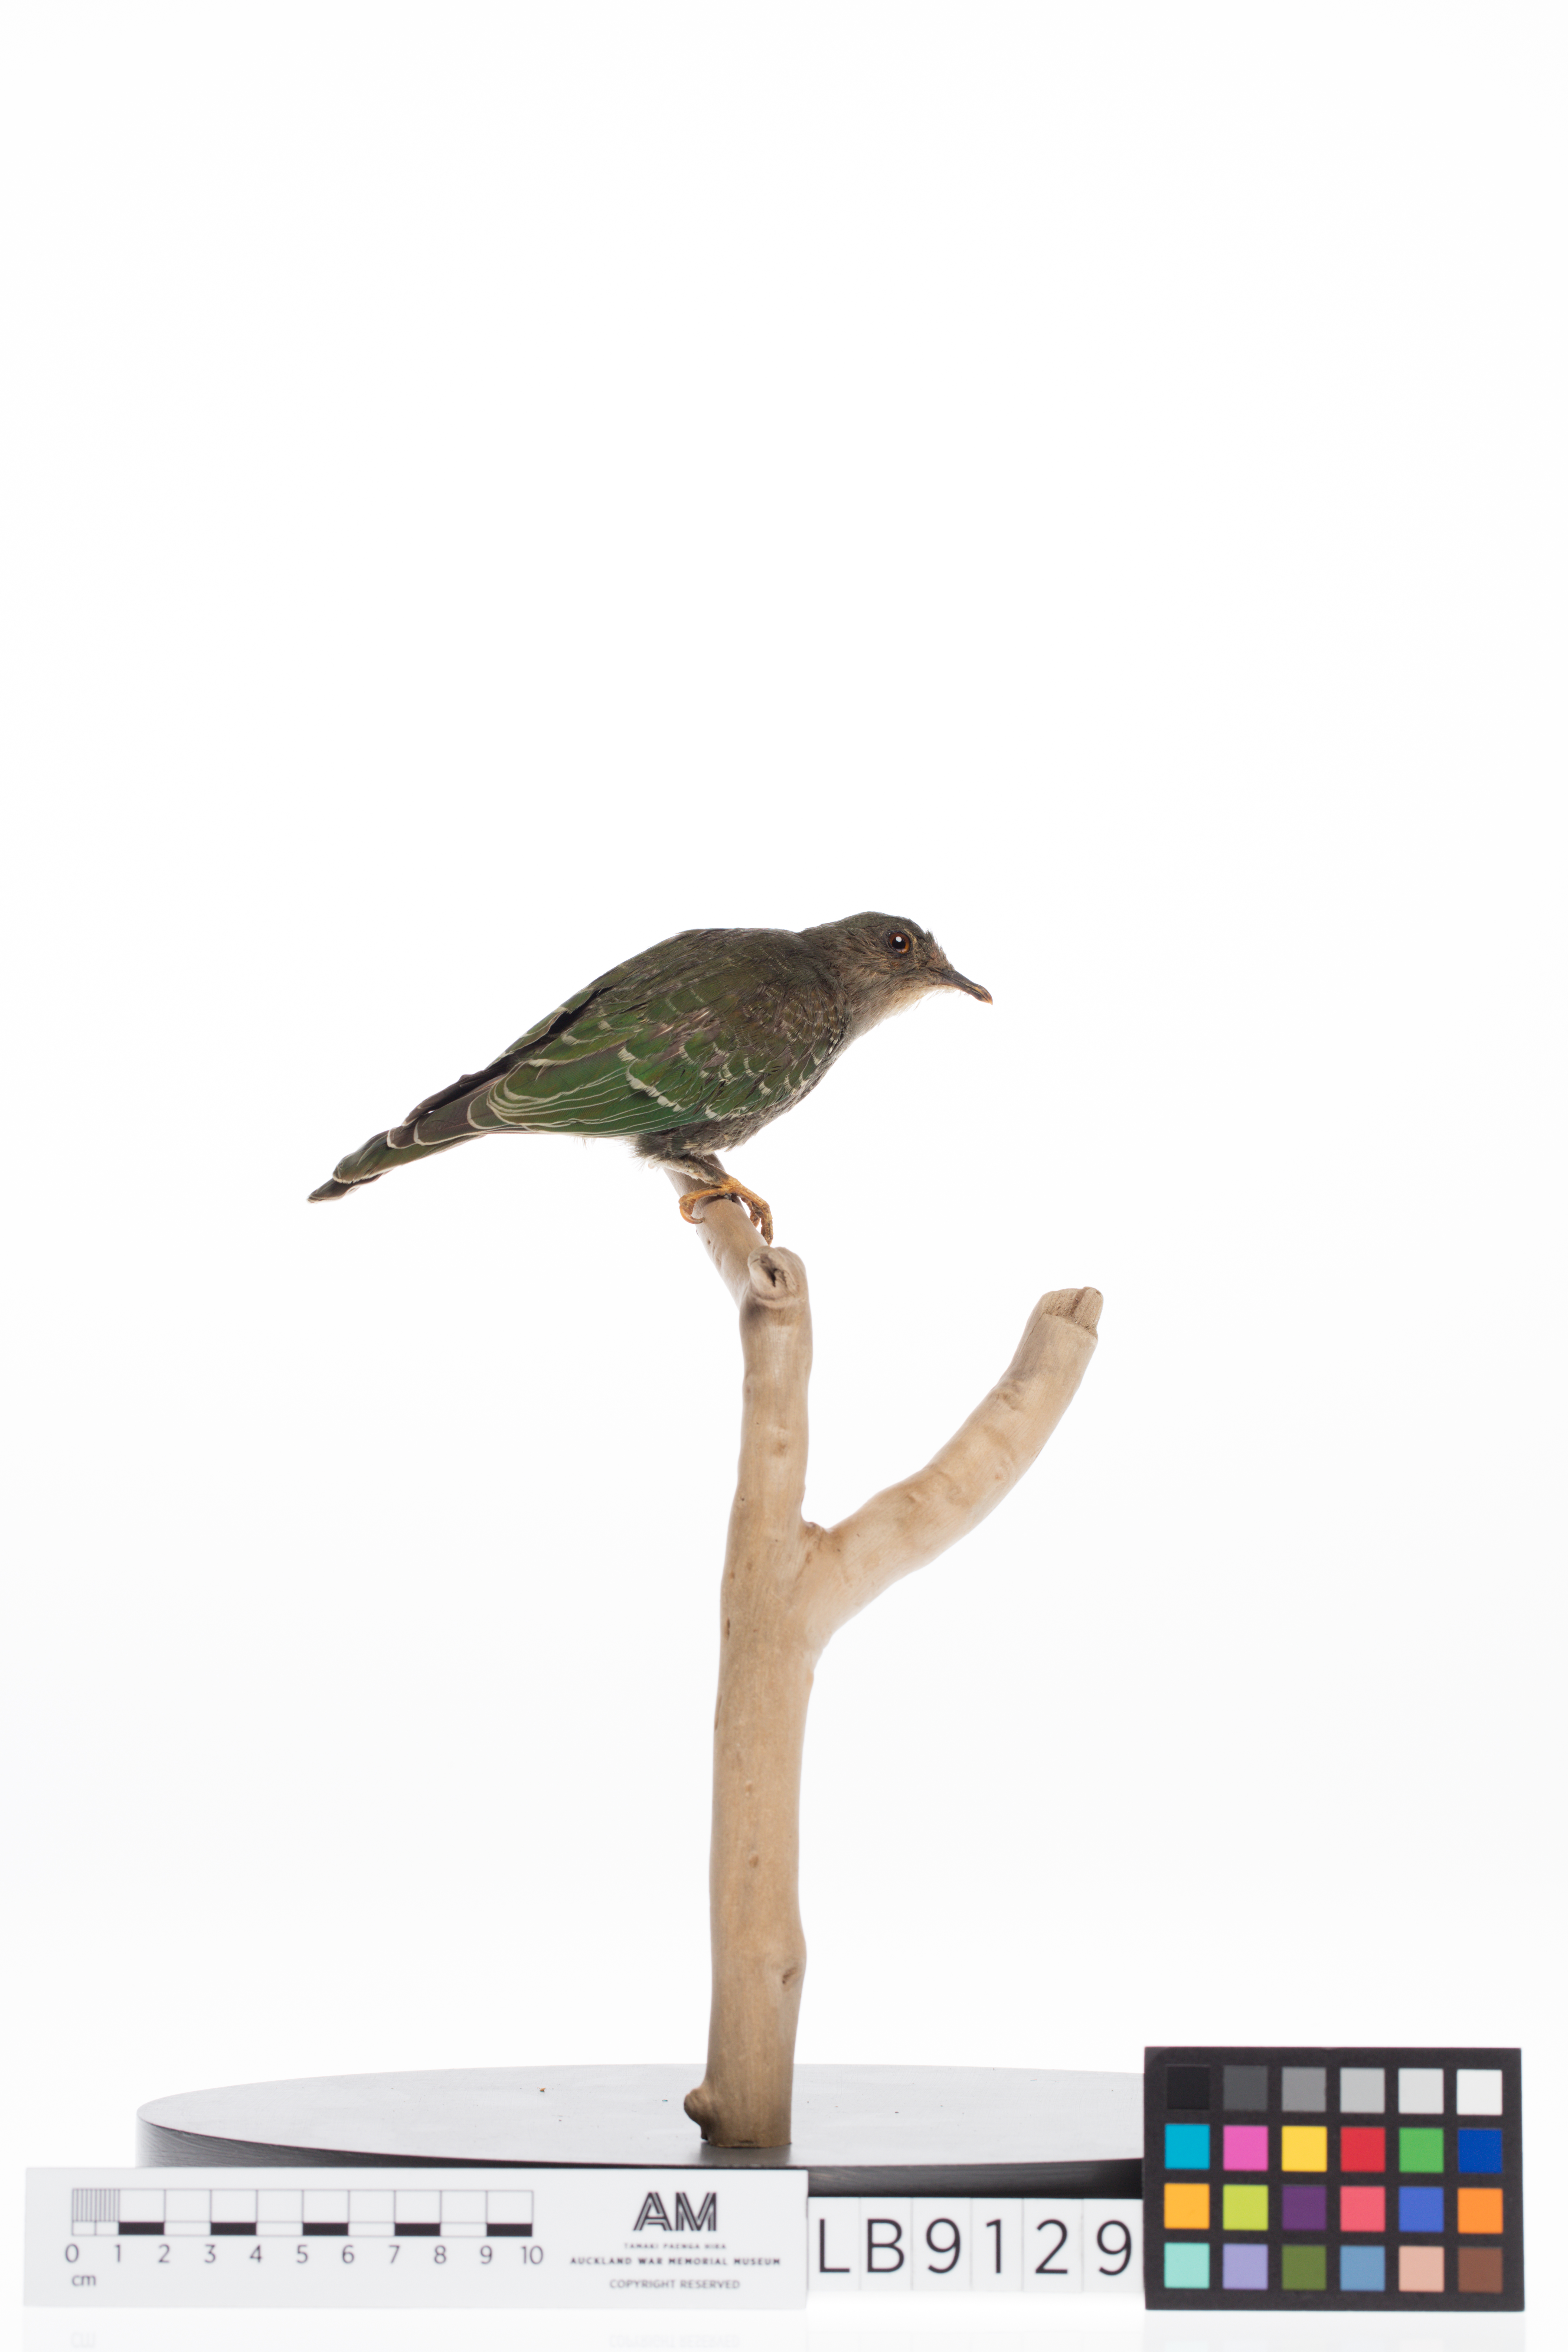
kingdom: Animalia
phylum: Chordata
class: Aves
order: Columbiformes
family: Columbidae
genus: Ptilinopus
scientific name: Ptilinopus viridis
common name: Claret-breasted fruit dove
